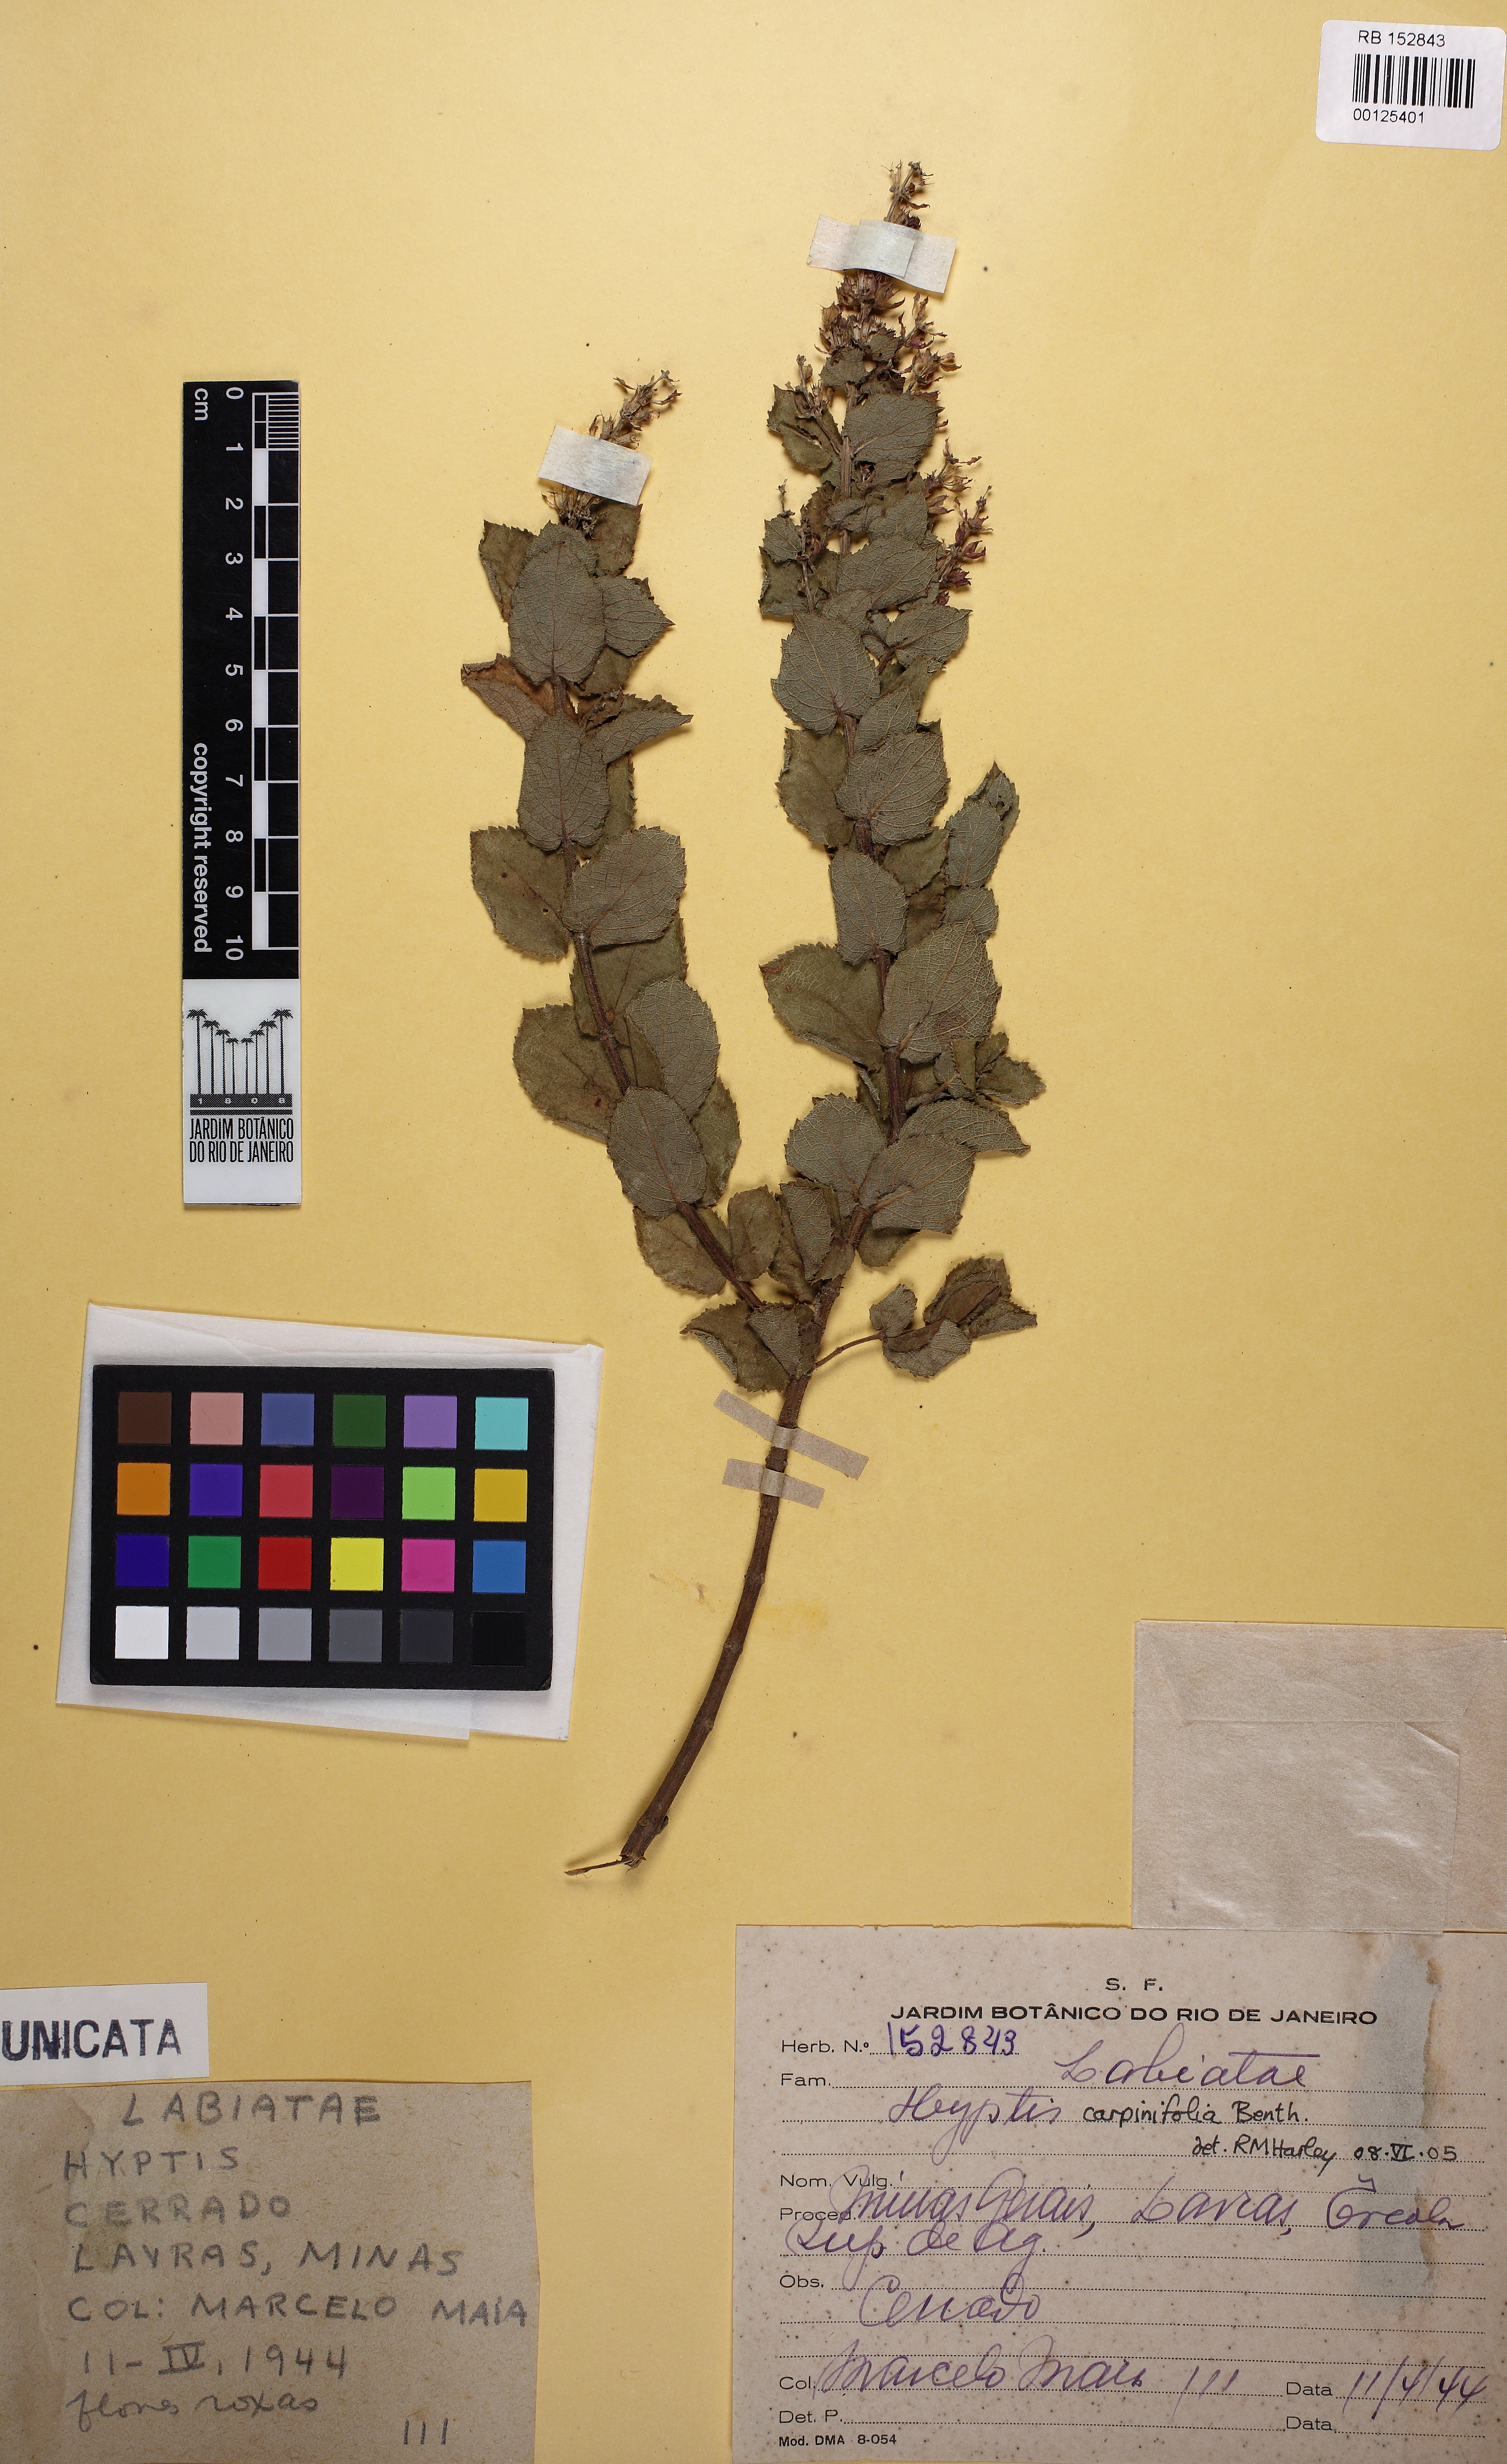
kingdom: Plantae
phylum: Tracheophyta
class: Magnoliopsida
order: Lamiales
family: Lamiaceae
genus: Cantinoa
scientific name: Cantinoa carpinifolia
